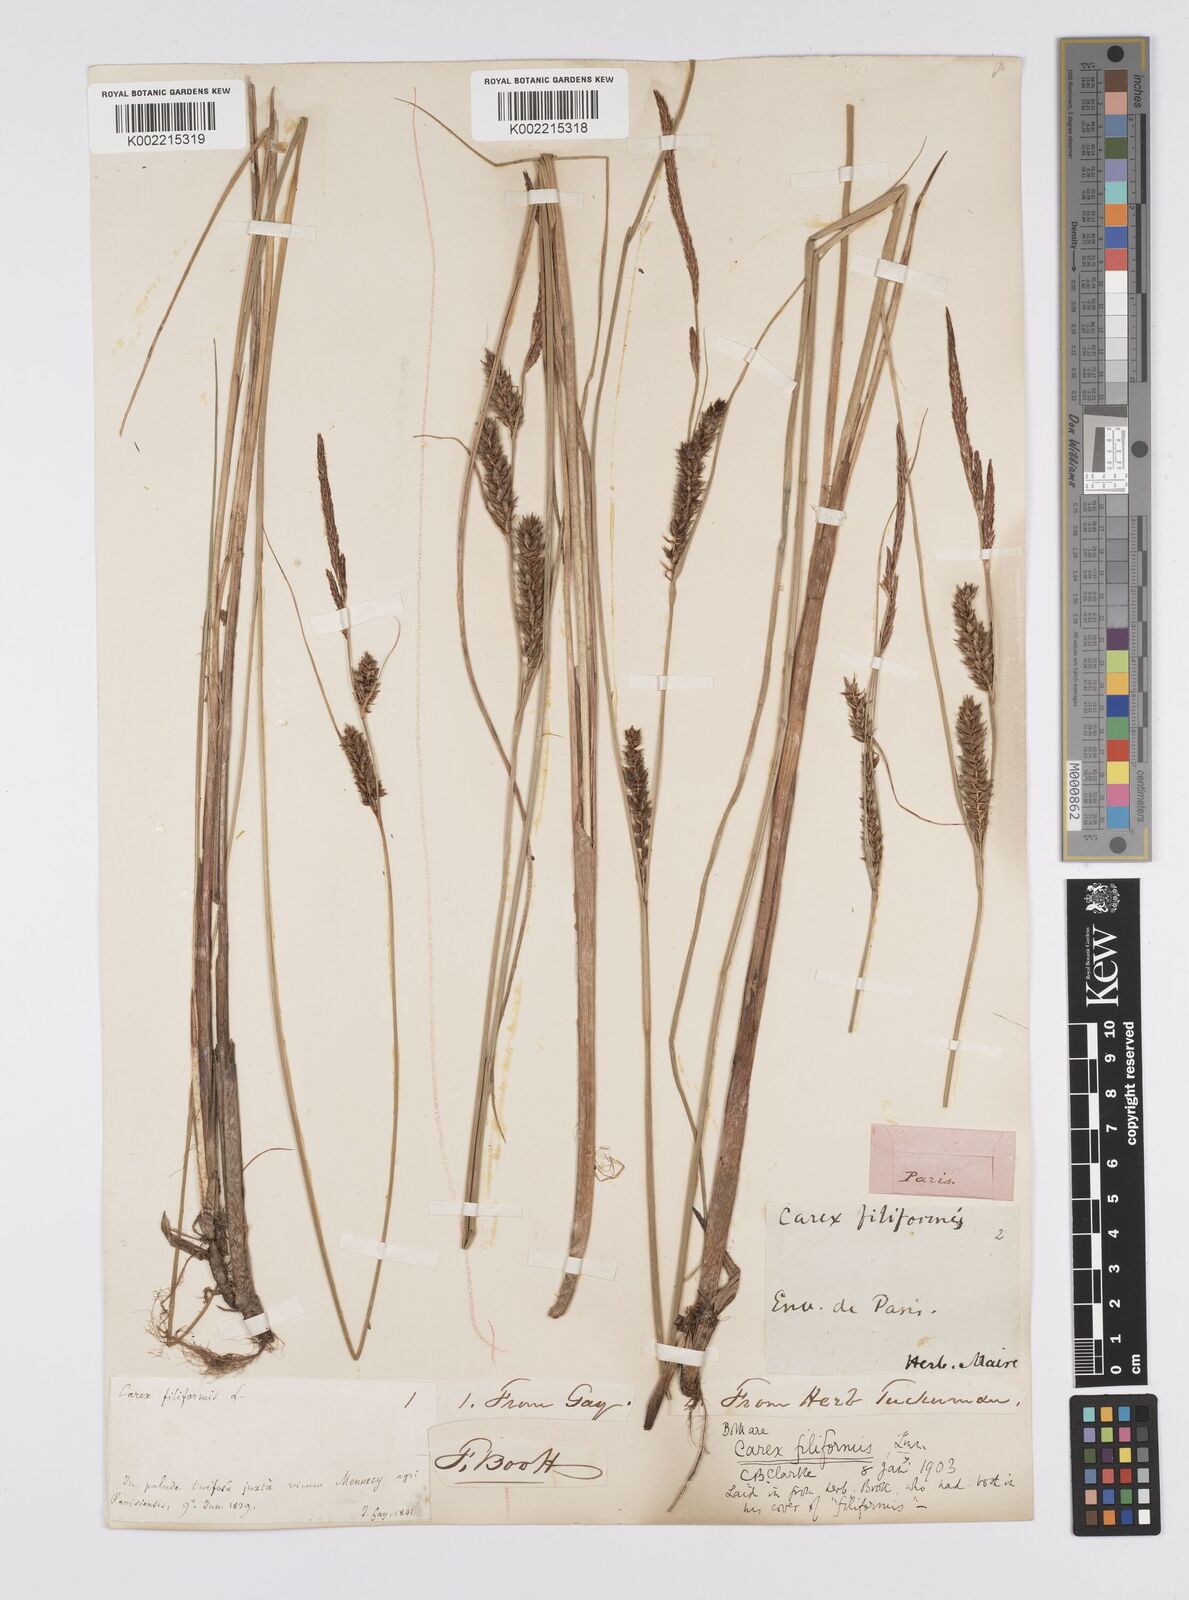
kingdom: Plantae
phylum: Tracheophyta
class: Liliopsida
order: Poales
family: Cyperaceae
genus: Carex
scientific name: Carex lasiocarpa
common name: Slender sedge
